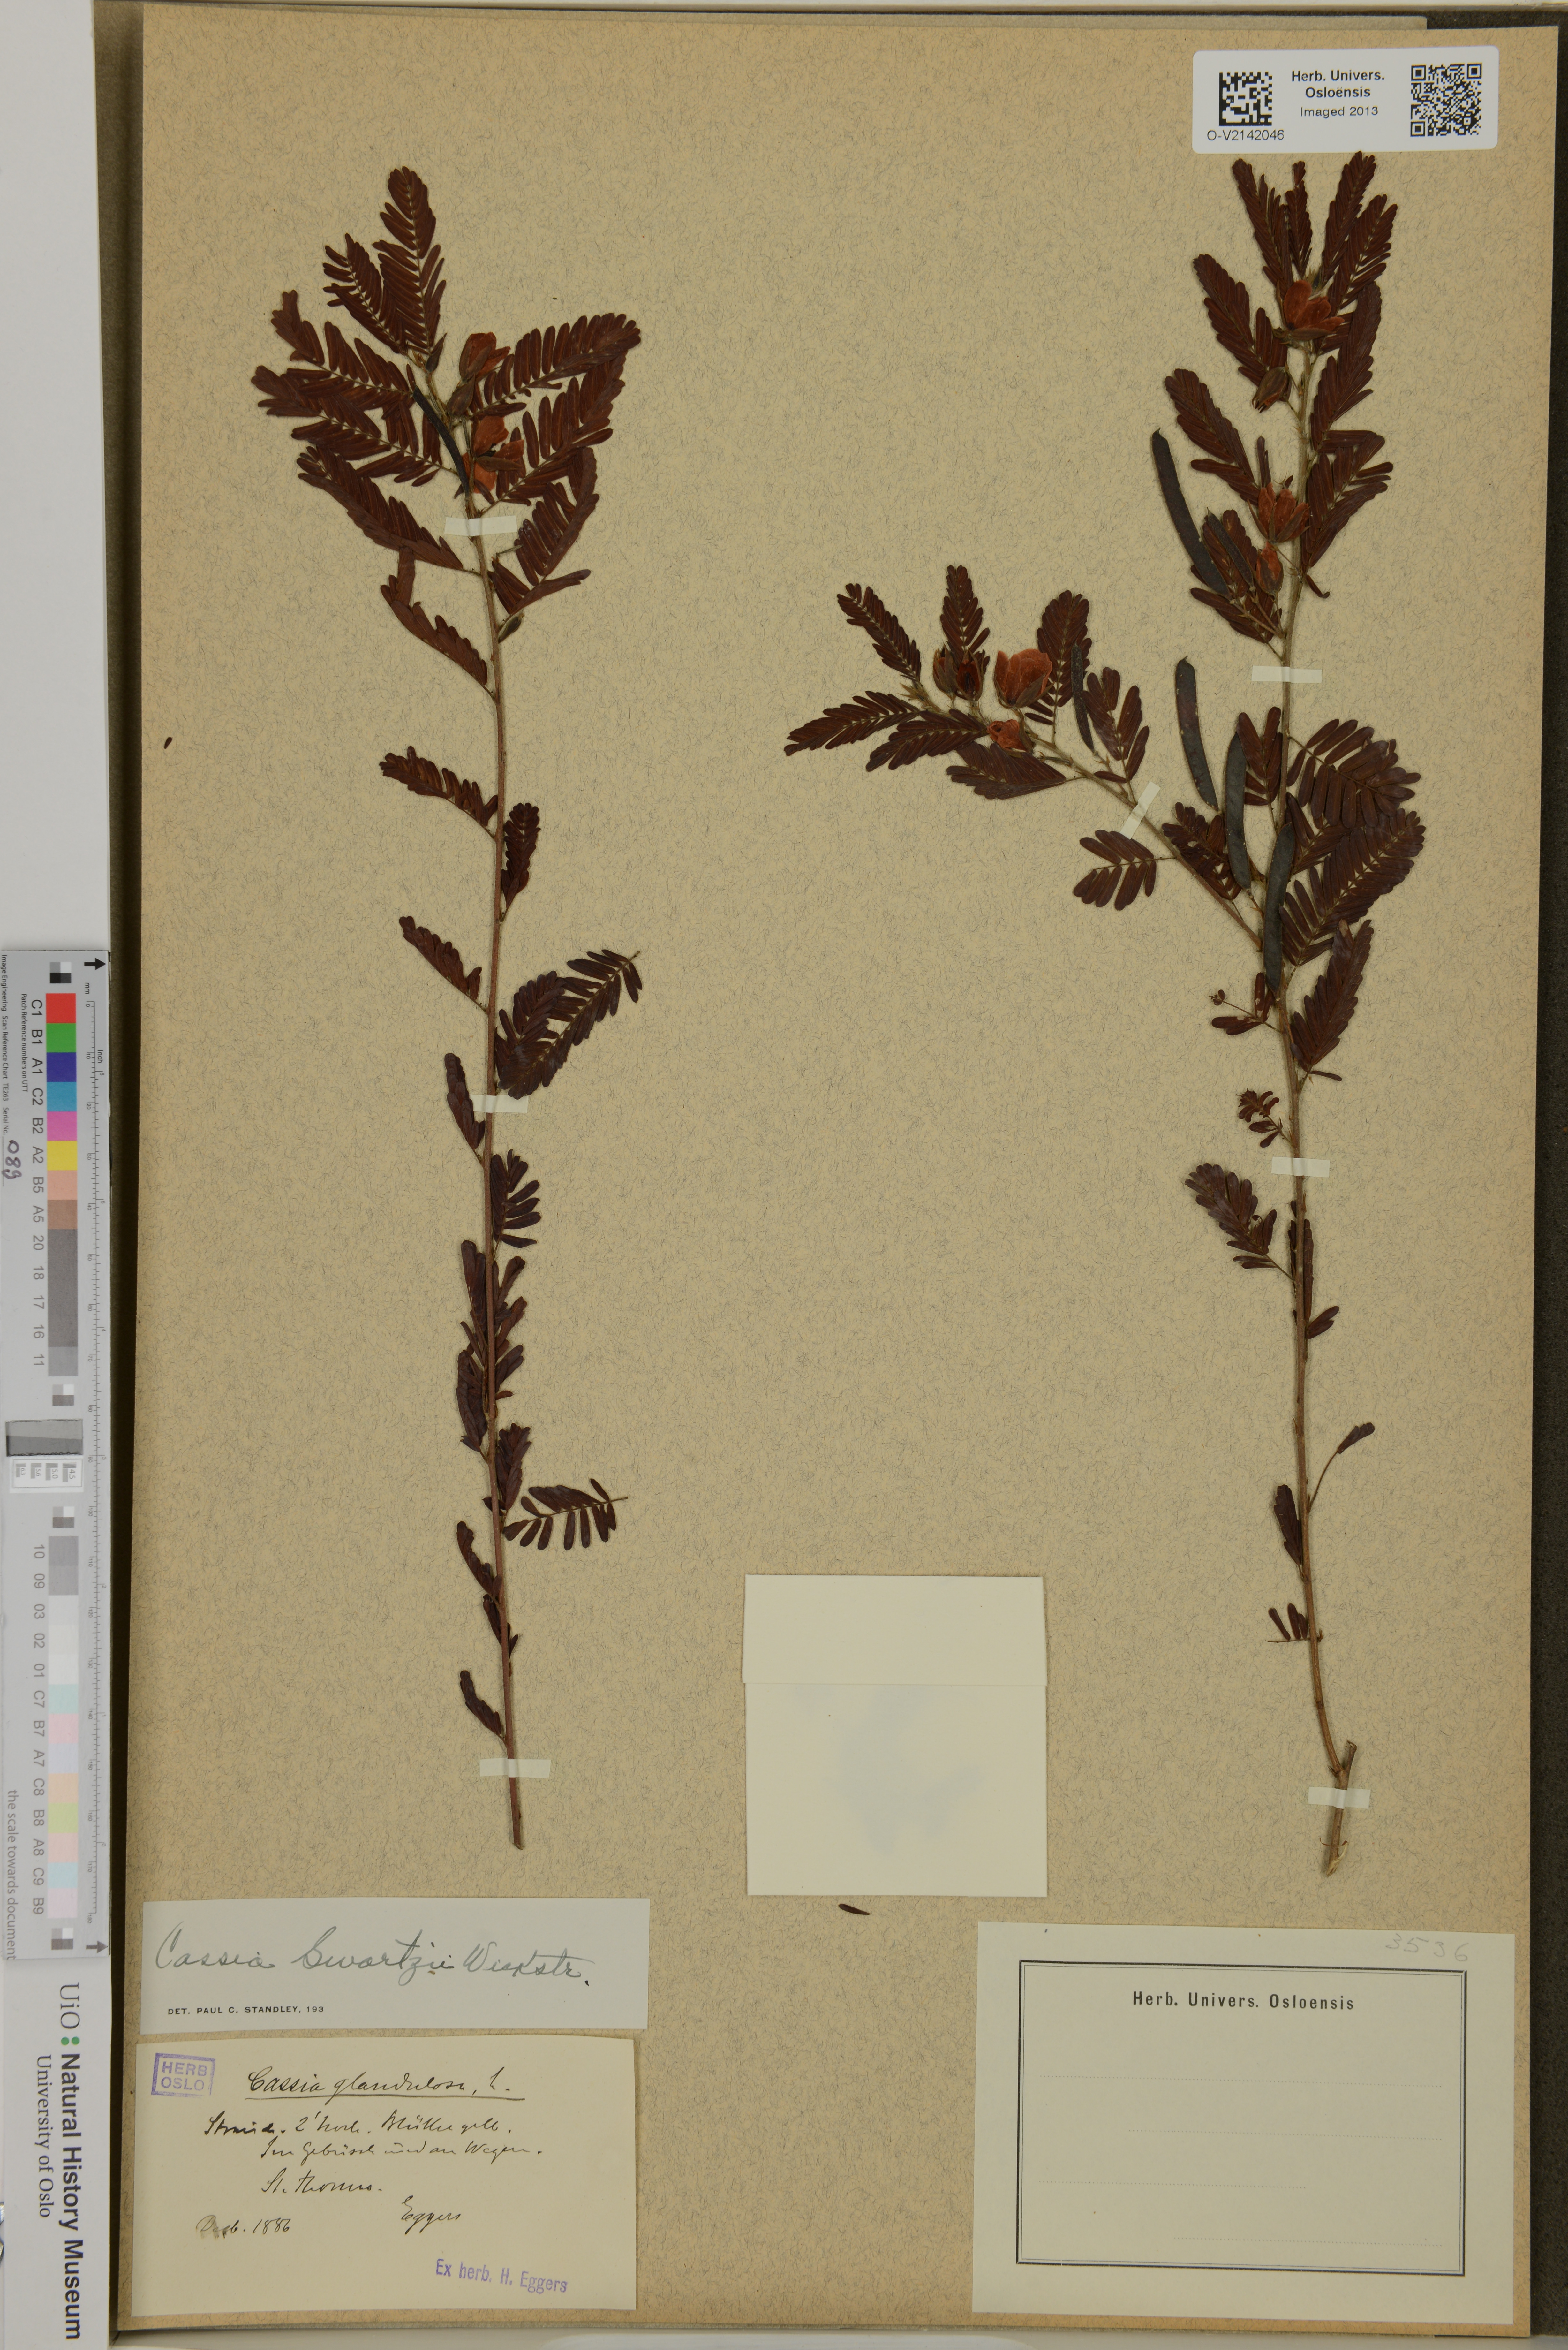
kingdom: Plantae
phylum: Tracheophyta
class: Magnoliopsida
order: Fabales
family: Fabaceae
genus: Chamaecrista
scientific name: Chamaecrista glandulosa
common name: Wild peas
